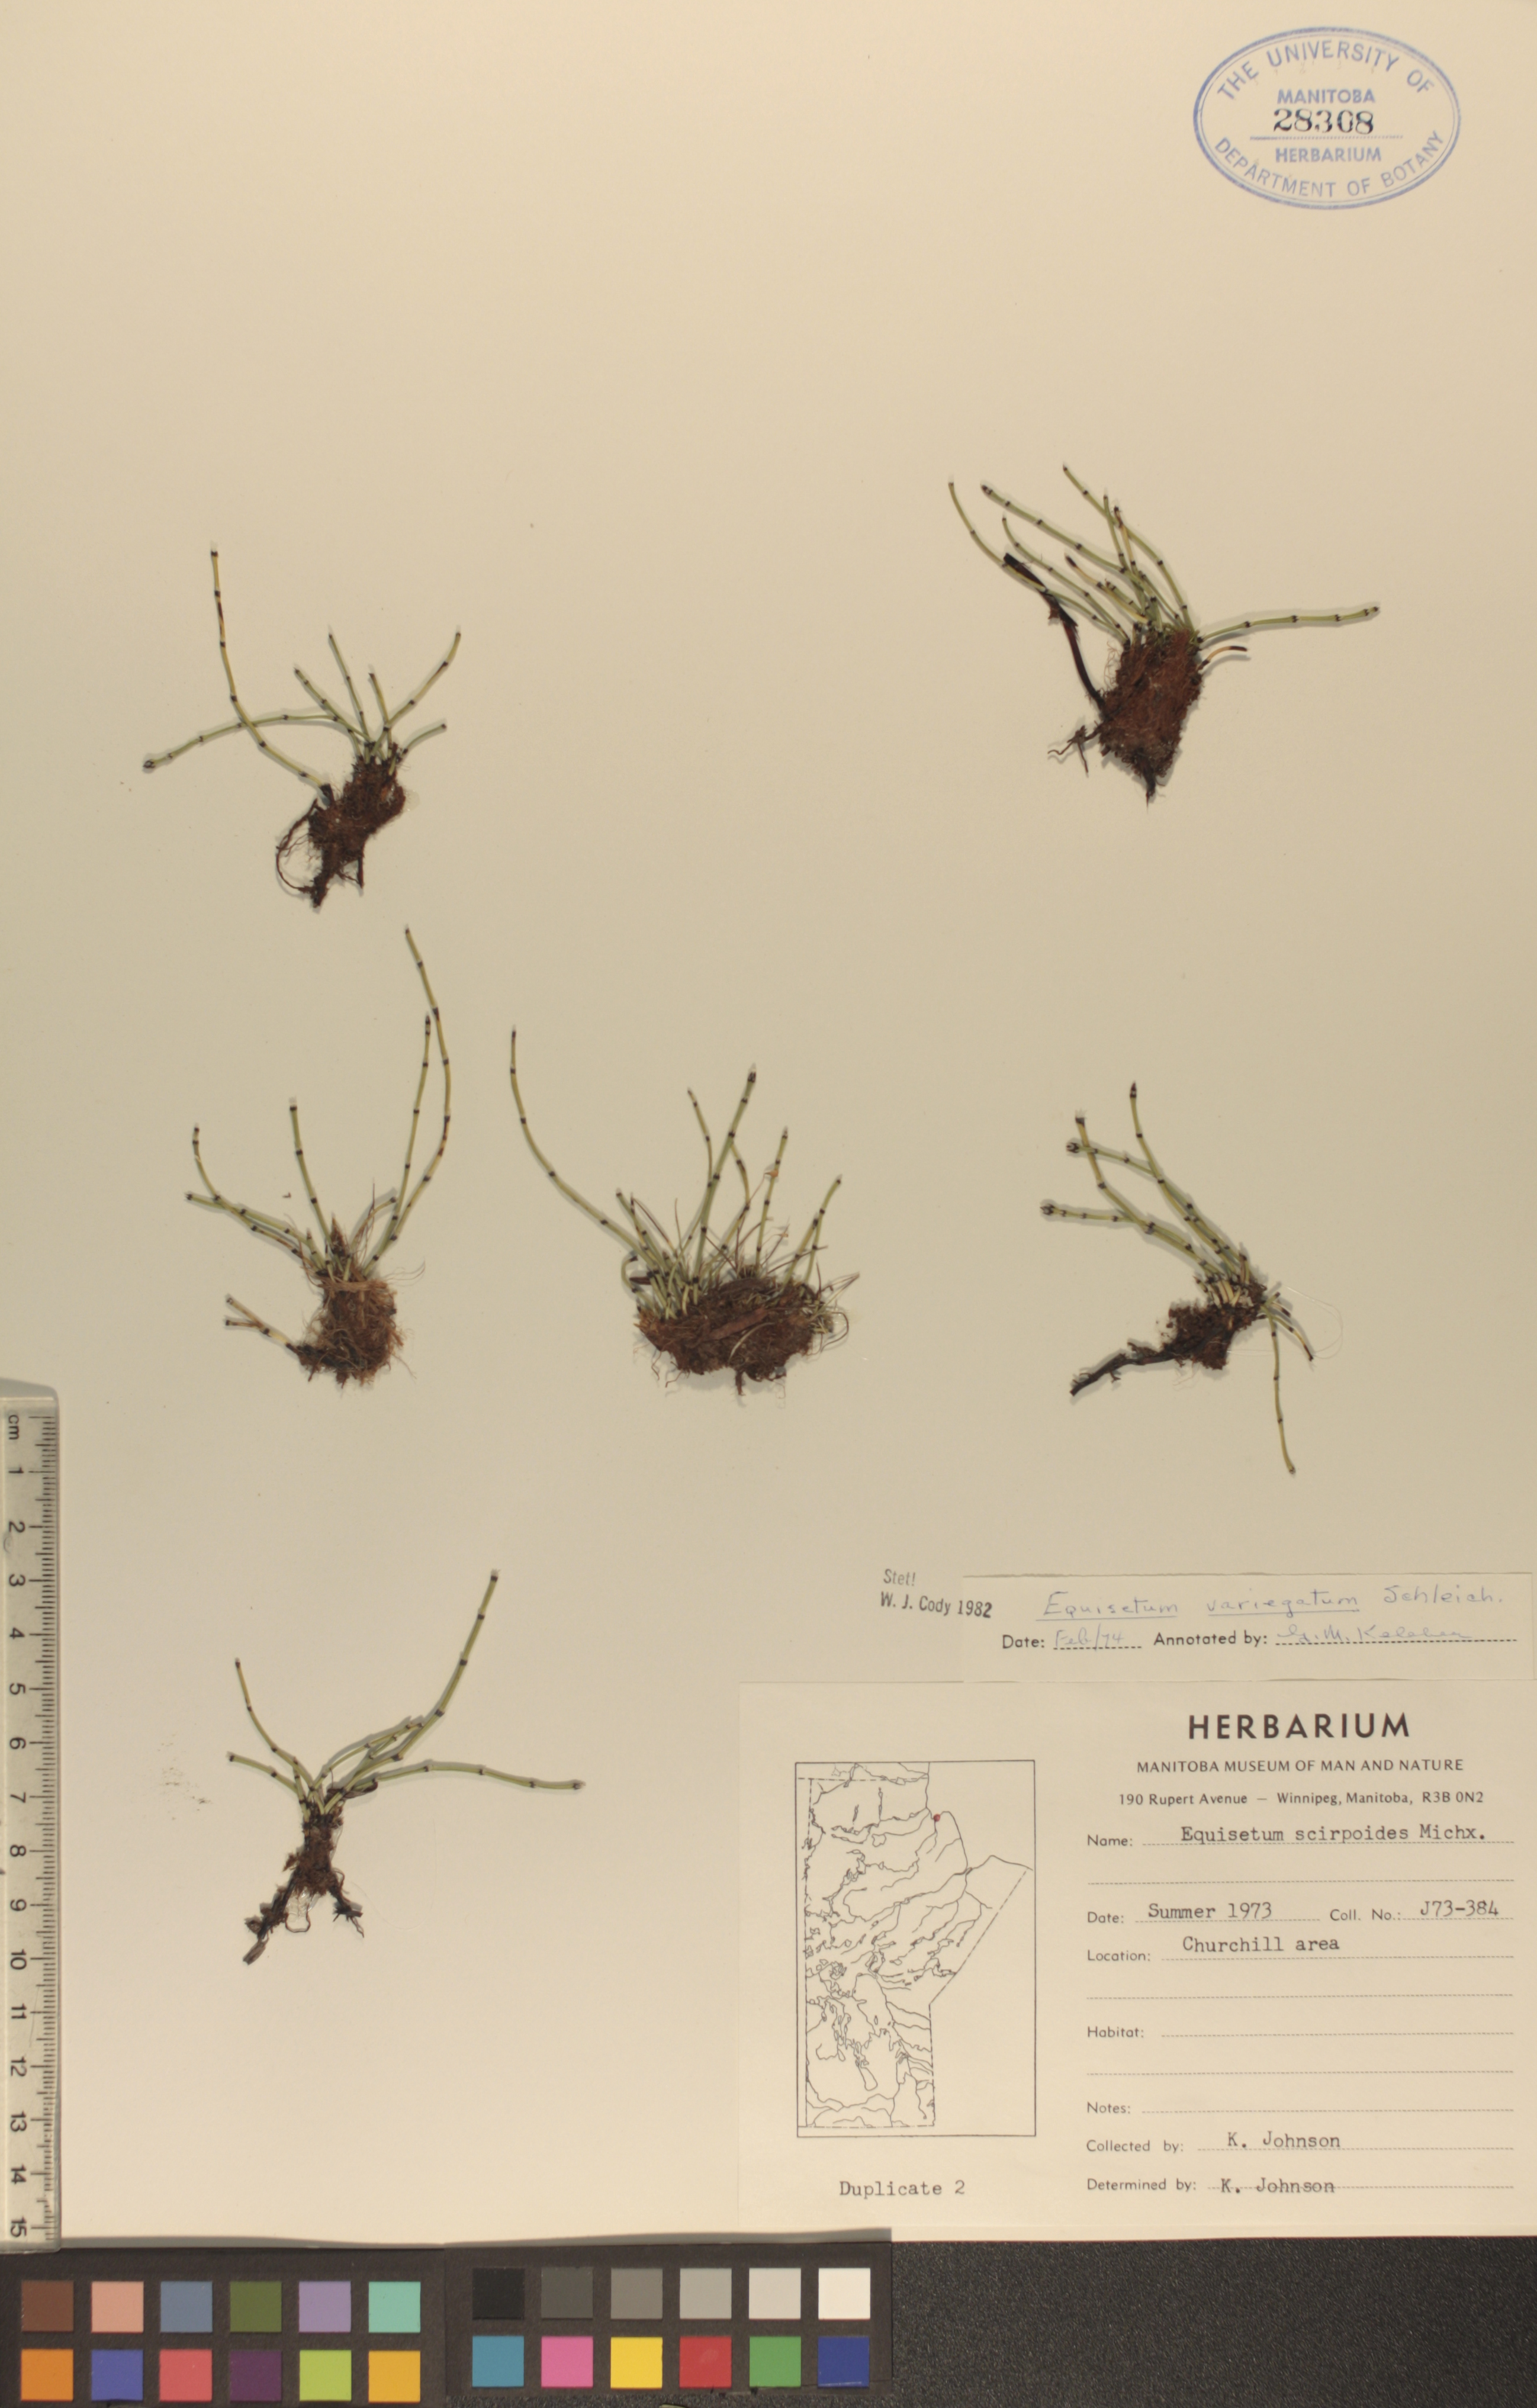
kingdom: Plantae
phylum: Tracheophyta
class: Polypodiopsida
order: Equisetales
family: Equisetaceae
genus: Equisetum
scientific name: Equisetum variegatum
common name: Variegated horsetail
